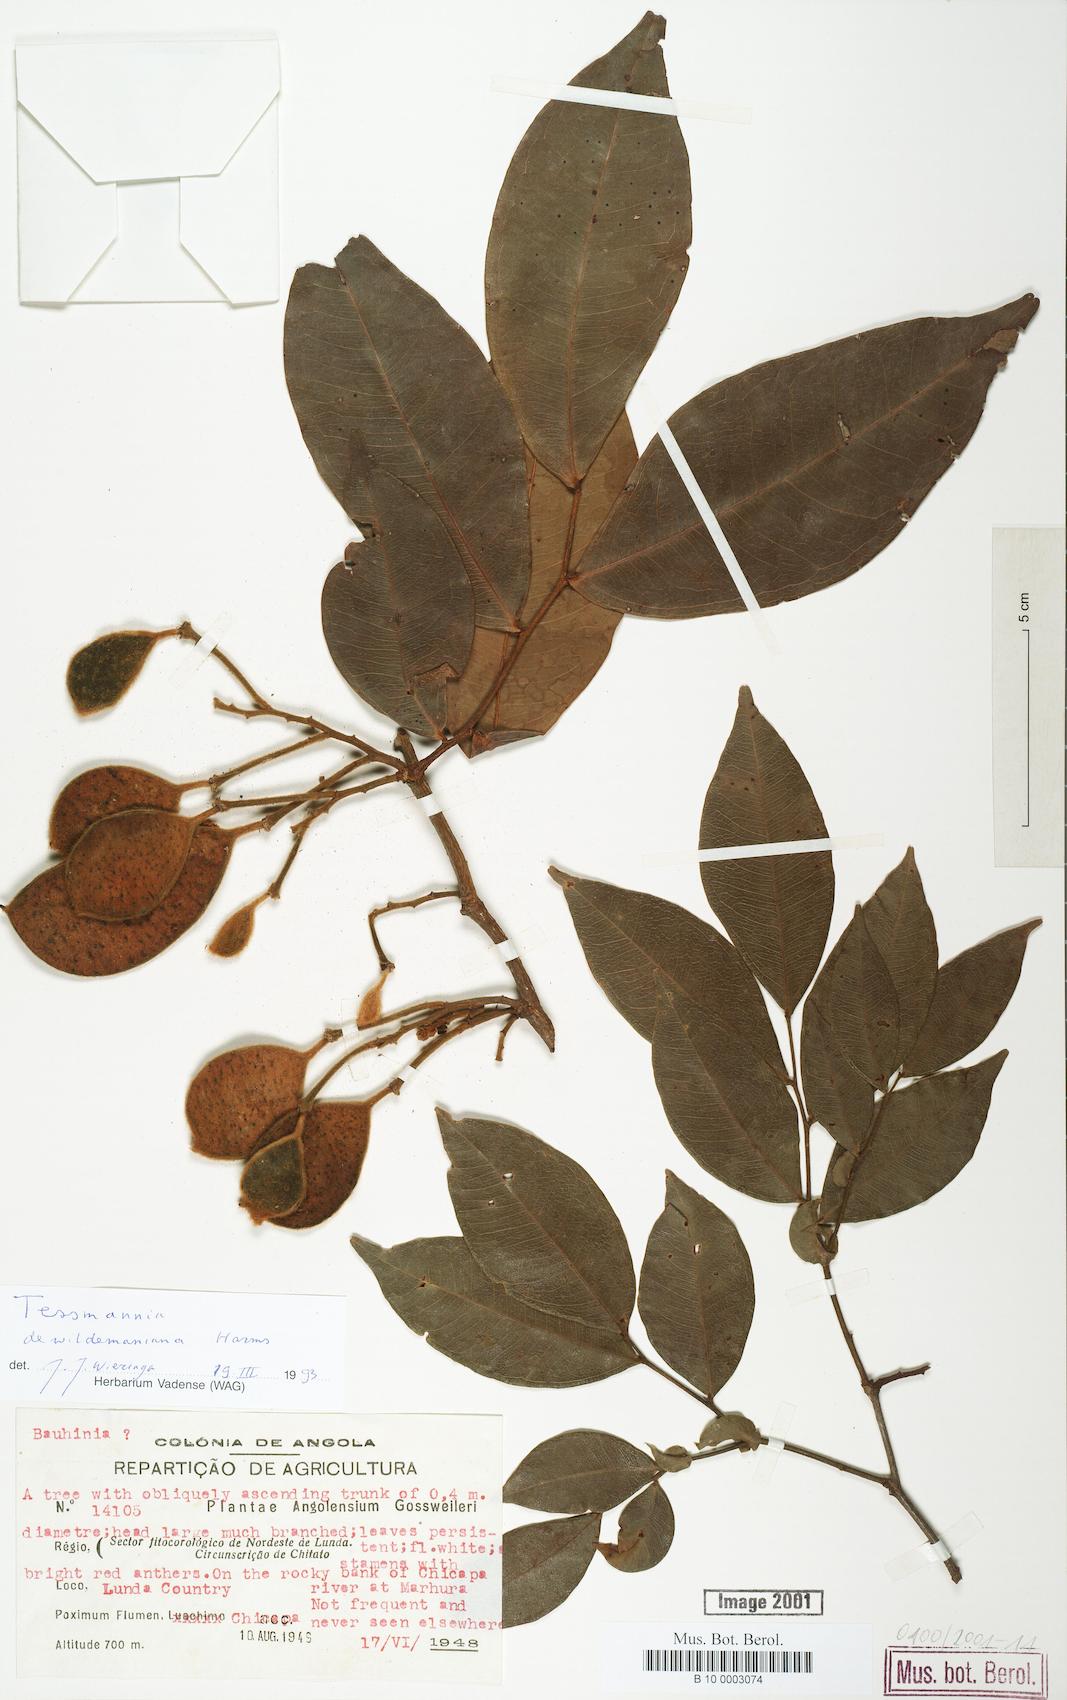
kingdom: Plantae
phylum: Tracheophyta
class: Magnoliopsida
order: Fabales
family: Fabaceae
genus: Tessmannia
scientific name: Tessmannia dewildemaniana
